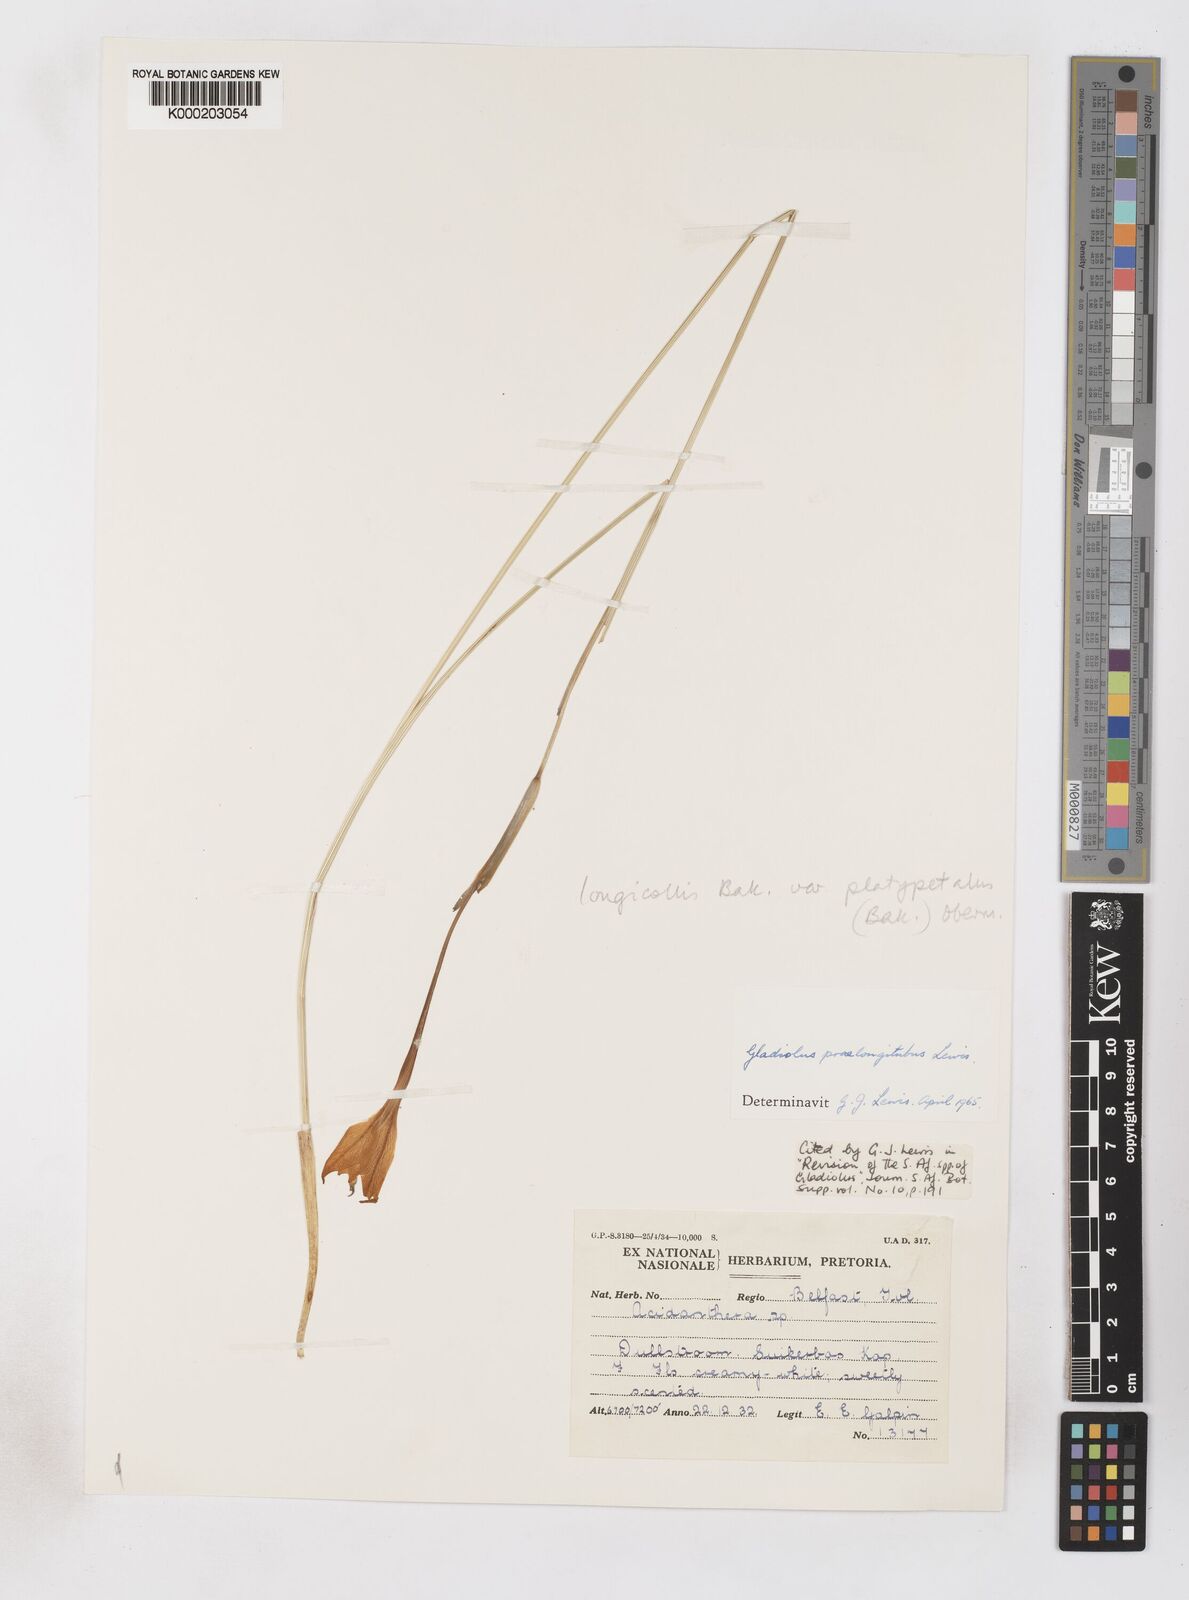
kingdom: Plantae
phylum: Tracheophyta
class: Liliopsida
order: Asparagales
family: Iridaceae
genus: Gladiolus
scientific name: Gladiolus longicollis
